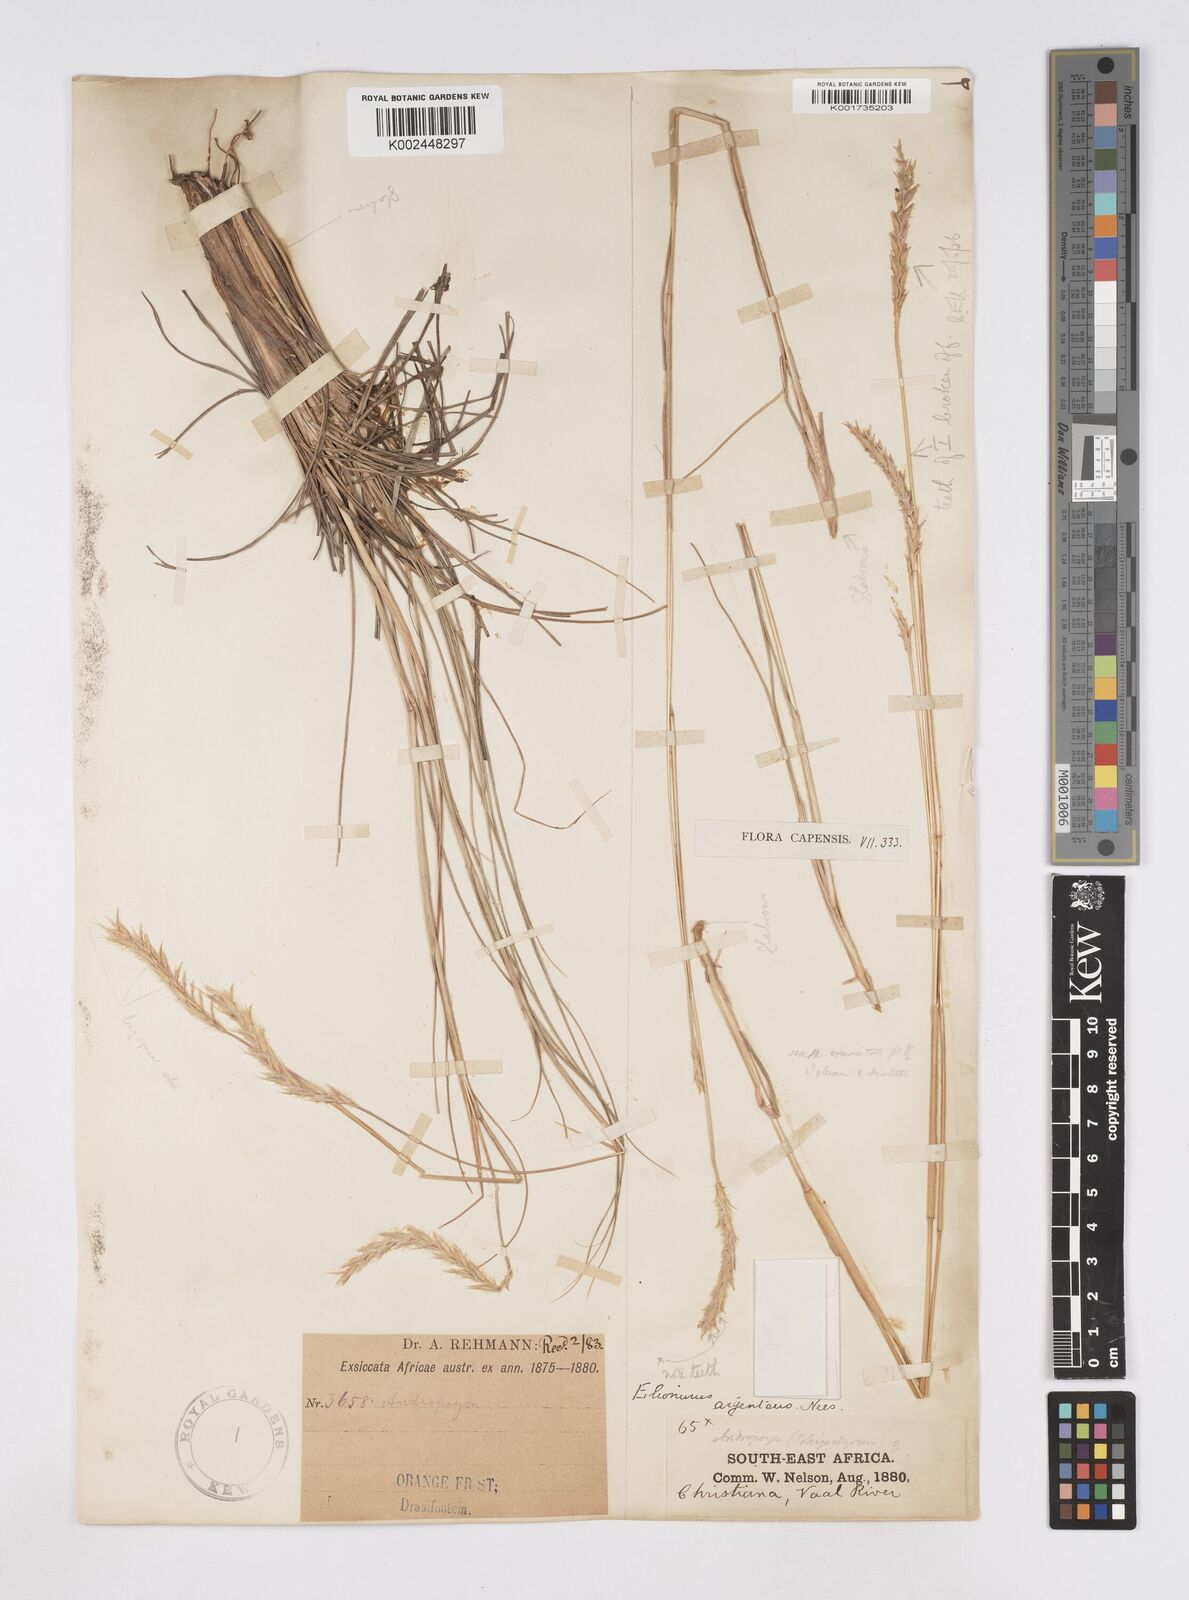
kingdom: Plantae
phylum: Tracheophyta
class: Liliopsida
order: Poales
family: Poaceae
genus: Elionurus
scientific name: Elionurus muticus
